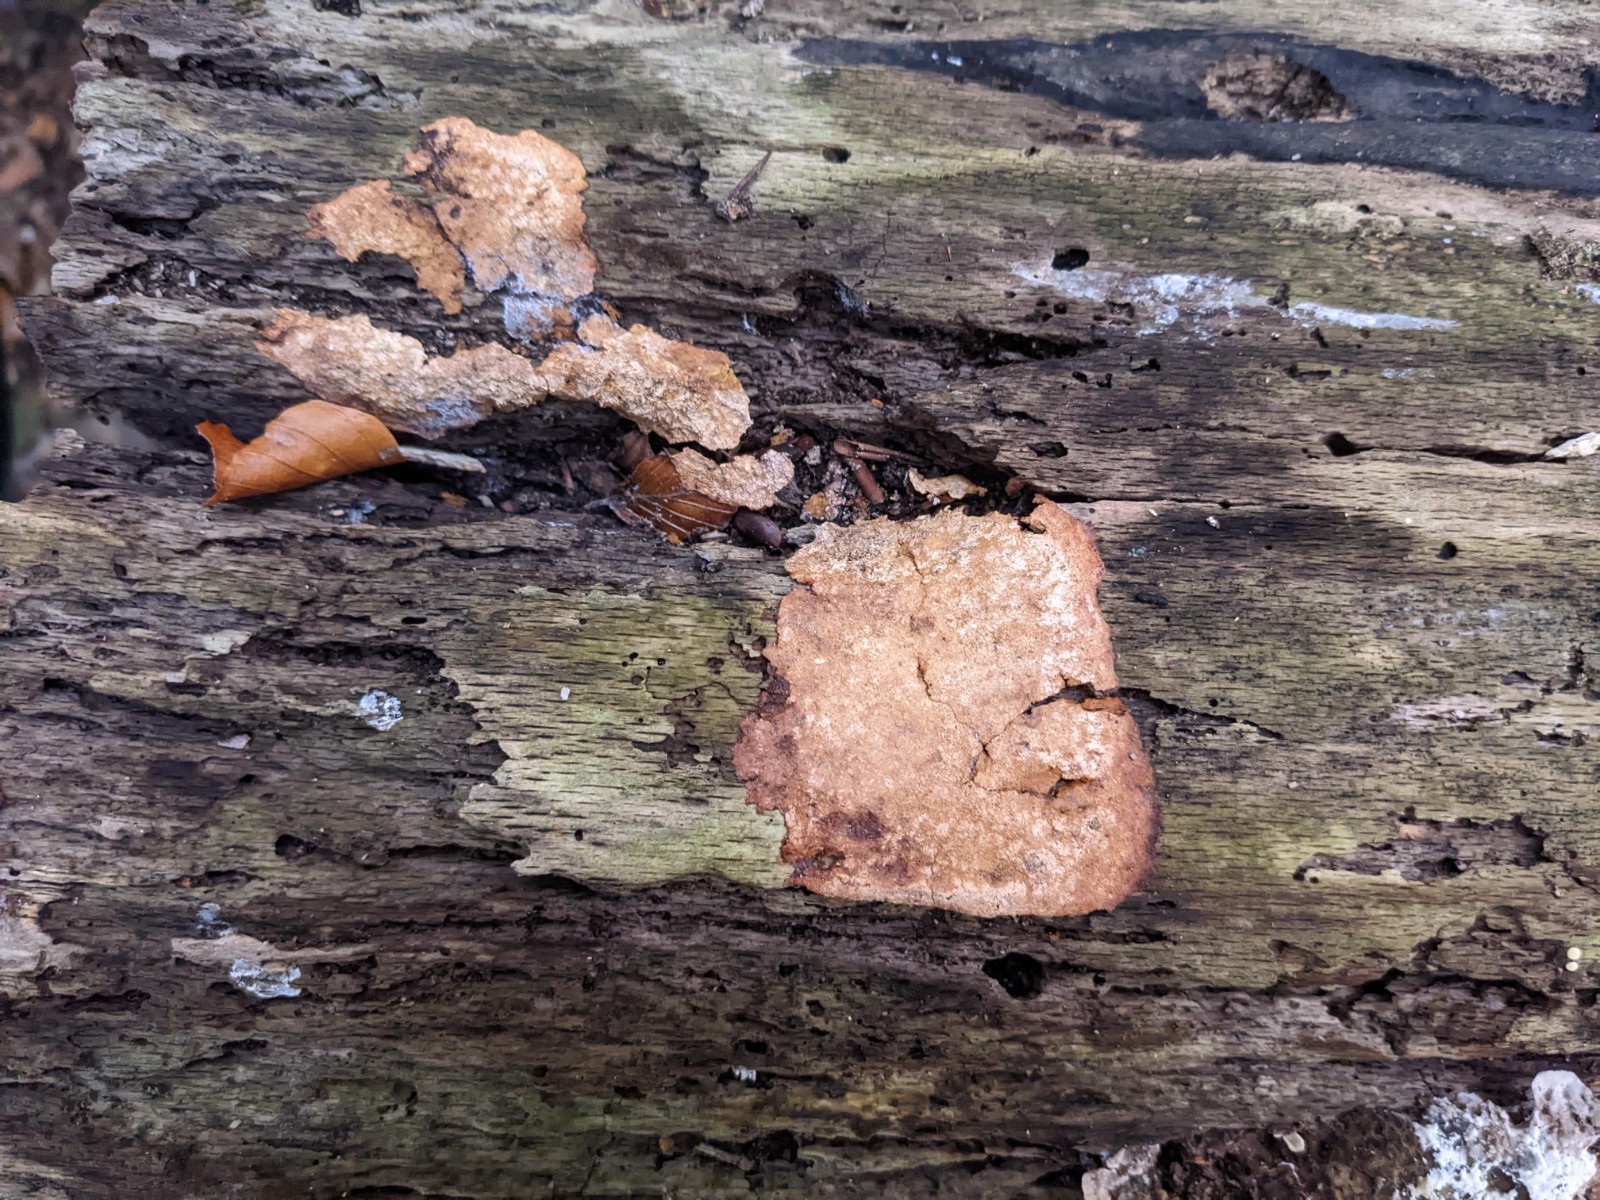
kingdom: Protozoa
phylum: Mycetozoa
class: Myxomycetes
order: Physarales
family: Physaraceae
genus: Fuligo
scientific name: Fuligo septica
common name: Dog vomit slime mold
